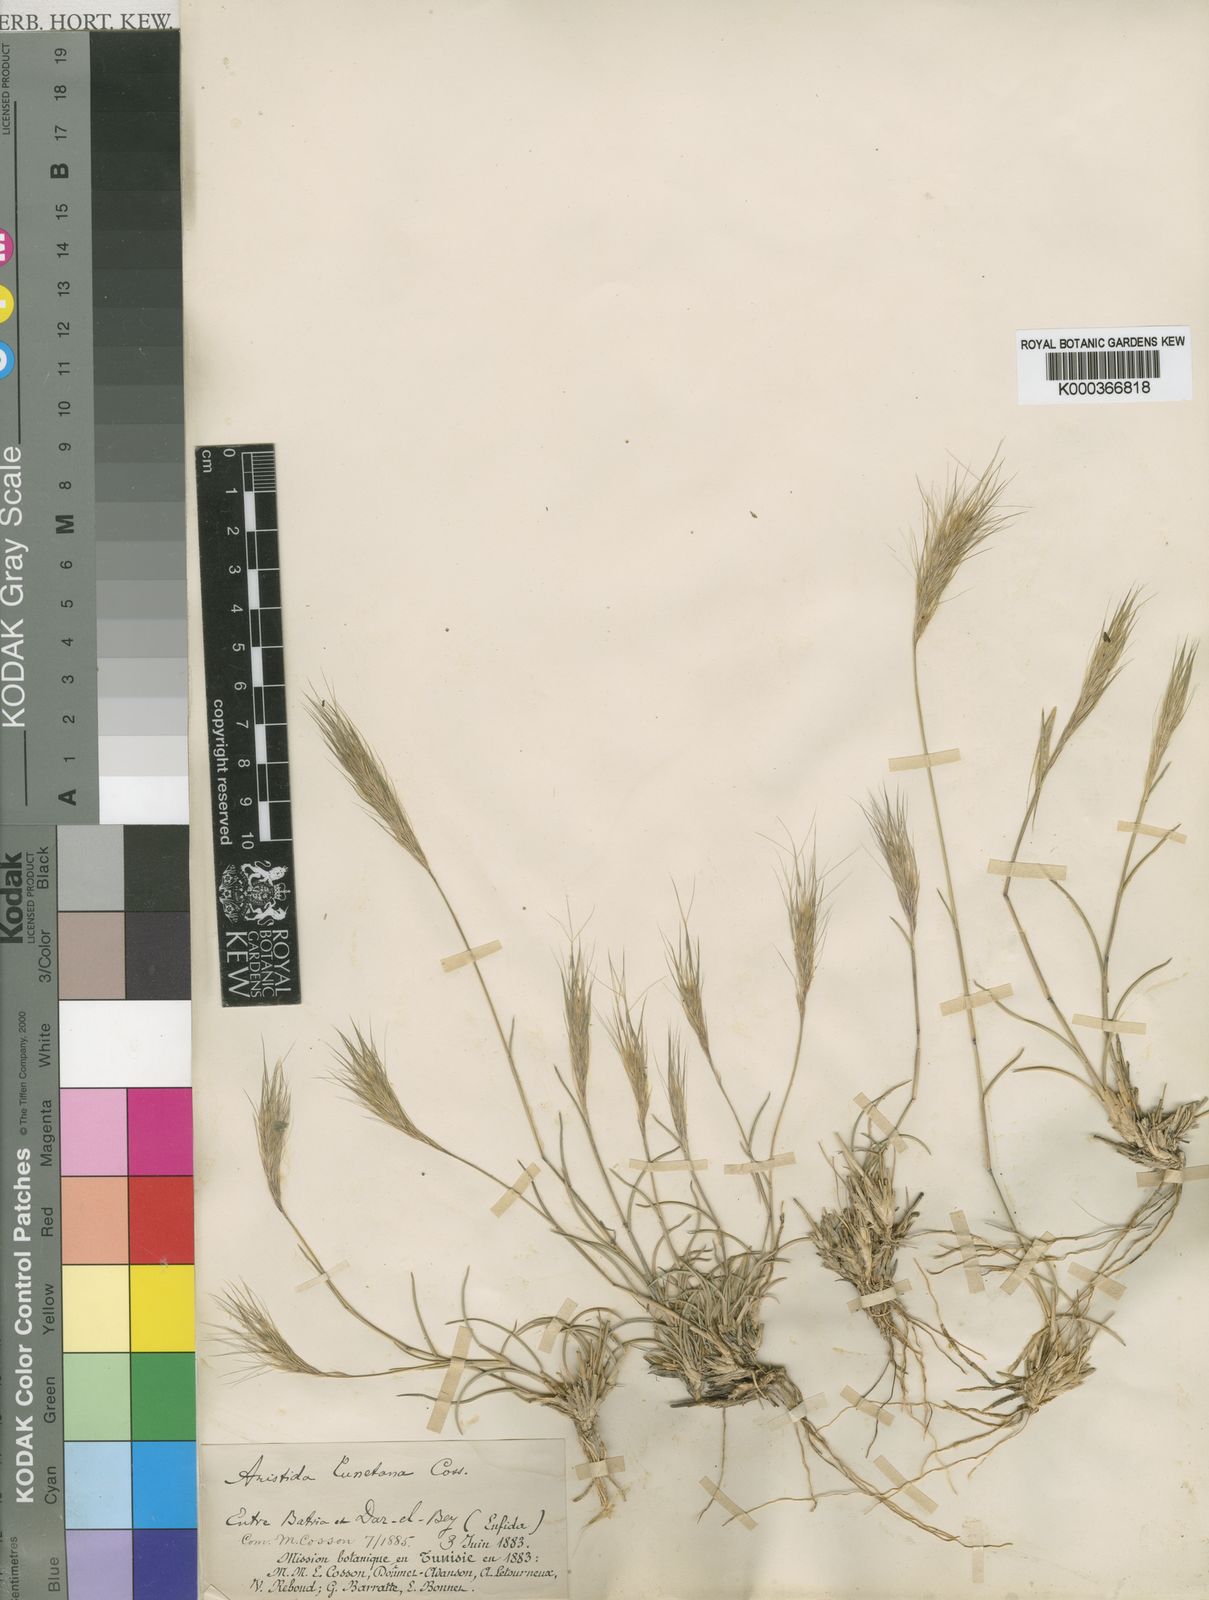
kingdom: Plantae
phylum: Tracheophyta
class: Liliopsida
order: Poales
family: Poaceae
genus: Aristida
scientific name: Aristida congesta
